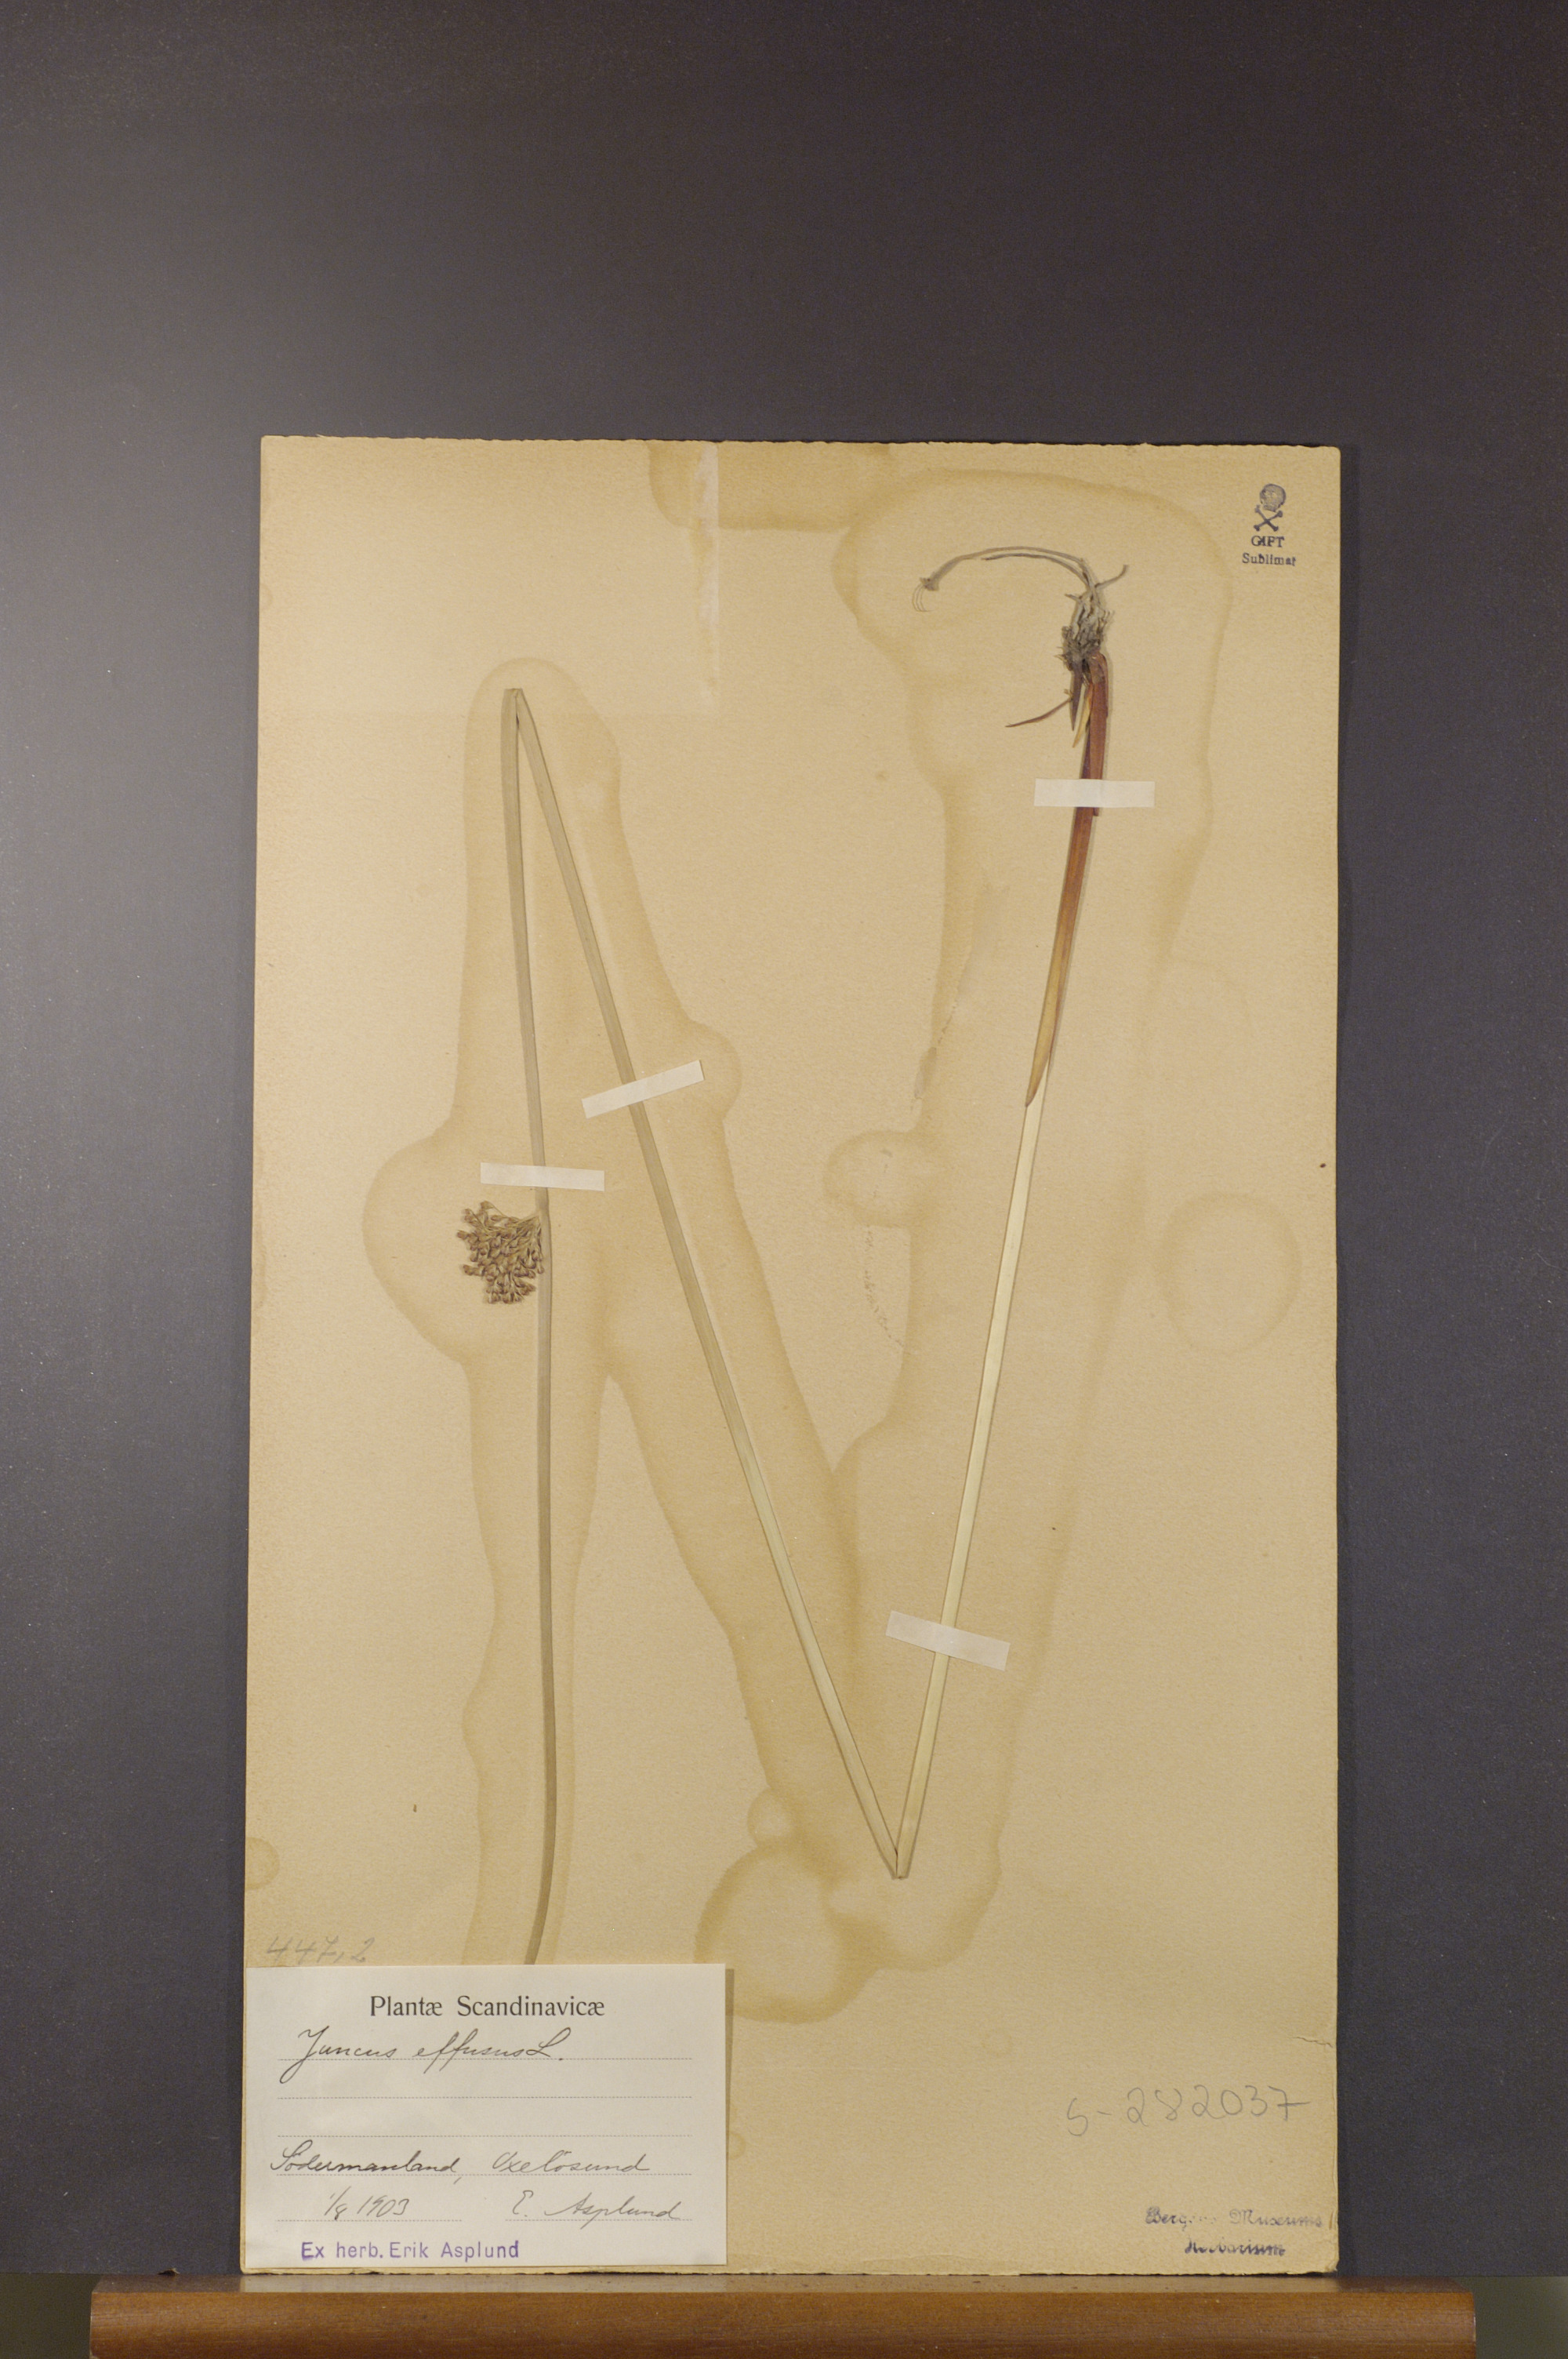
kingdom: Plantae
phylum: Tracheophyta
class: Liliopsida
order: Poales
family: Juncaceae
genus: Juncus
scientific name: Juncus effusus
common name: Soft rush
